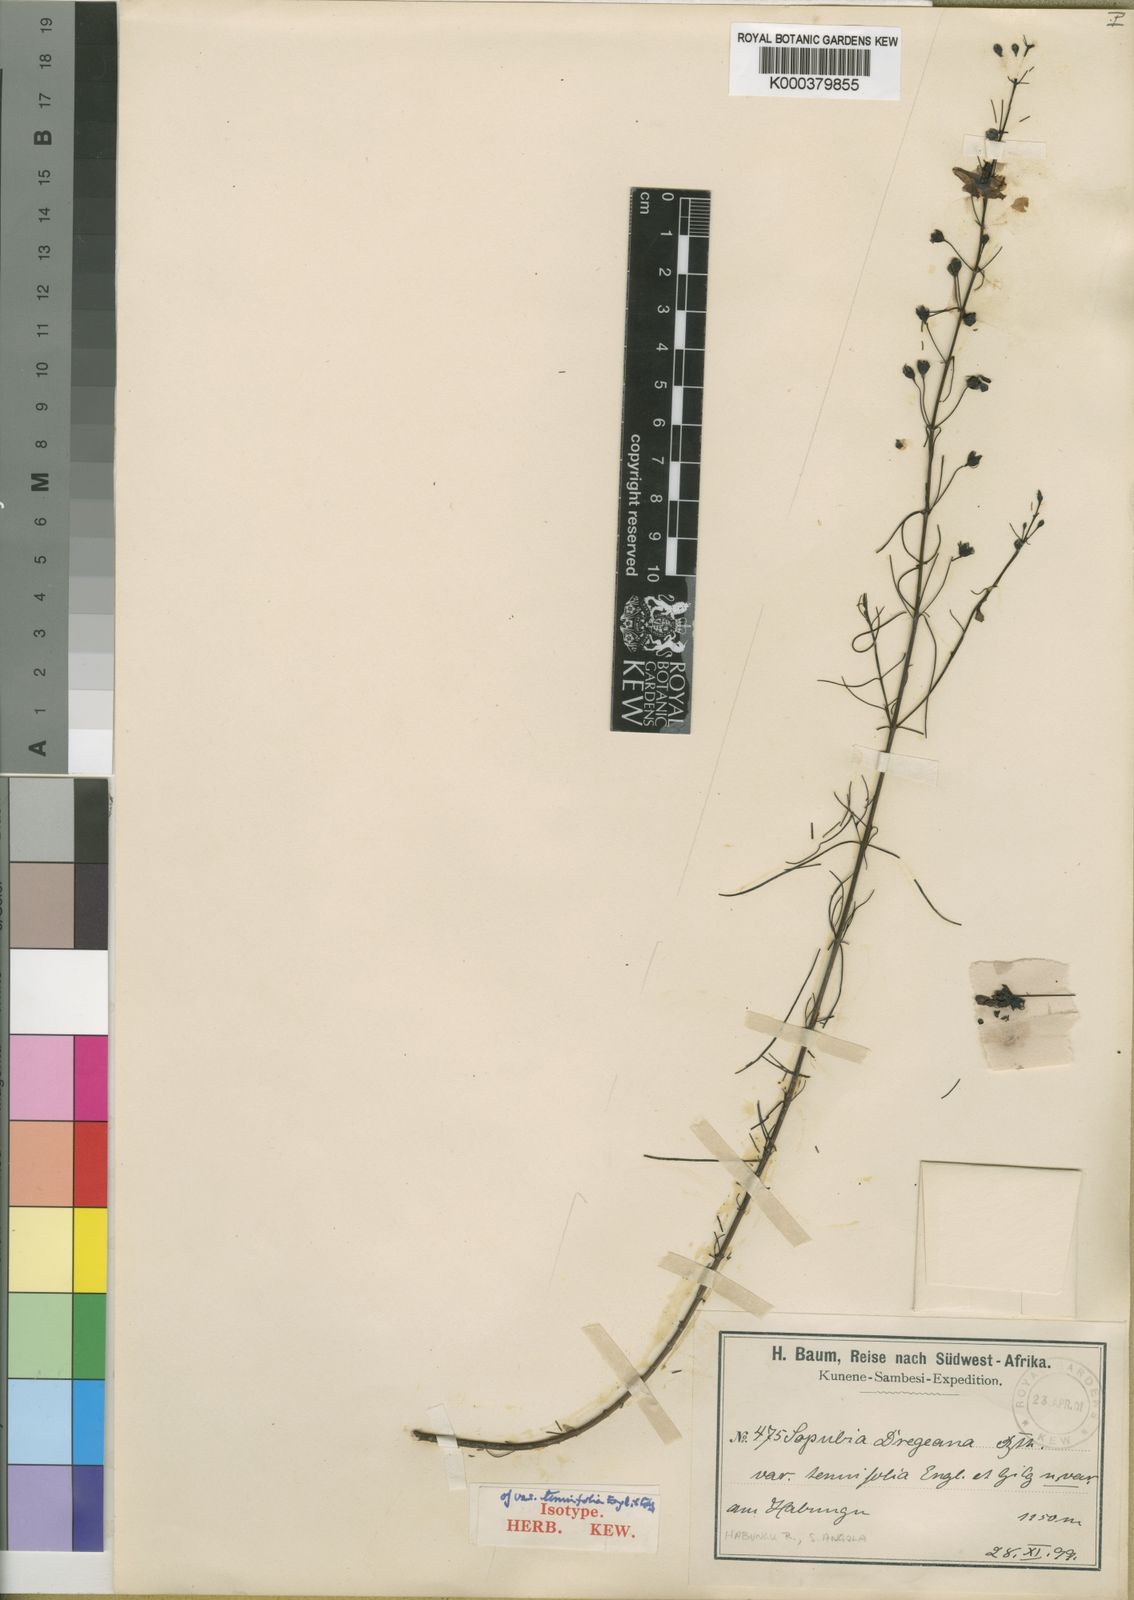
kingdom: Plantae
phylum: Tracheophyta
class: Magnoliopsida
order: Lamiales
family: Orobanchaceae
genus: Sopubia
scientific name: Sopubia simplex
